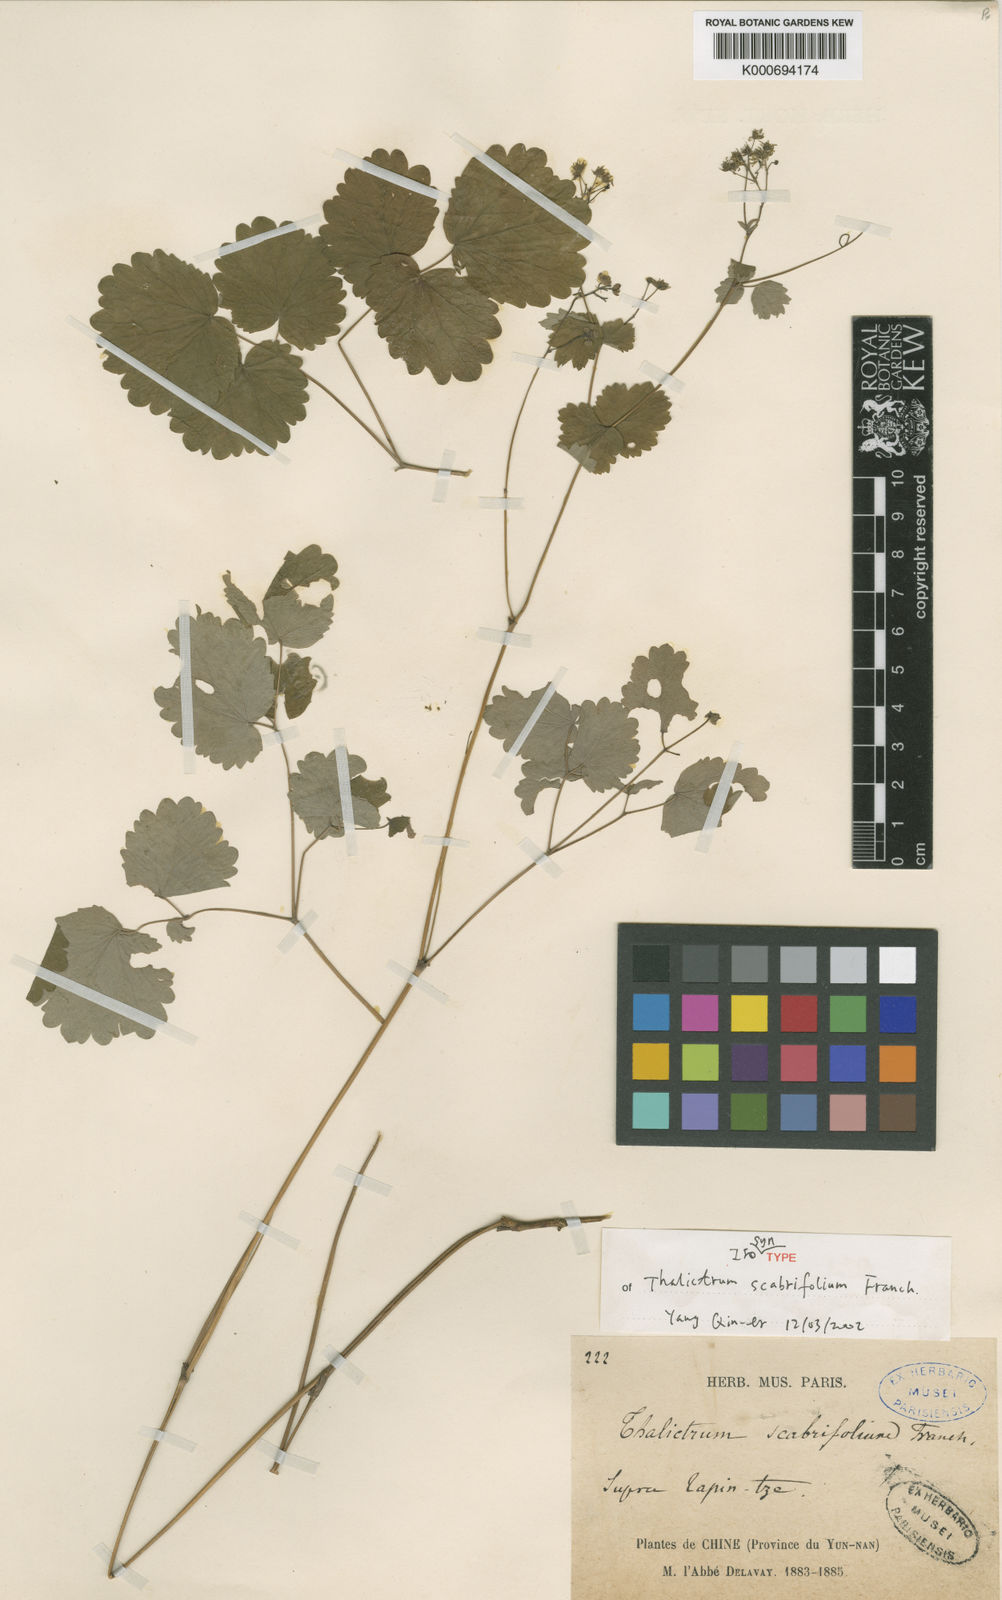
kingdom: Plantae
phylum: Tracheophyta
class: Magnoliopsida
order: Ranunculales
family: Ranunculaceae
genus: Thalictrum
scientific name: Thalictrum scabrifolium
